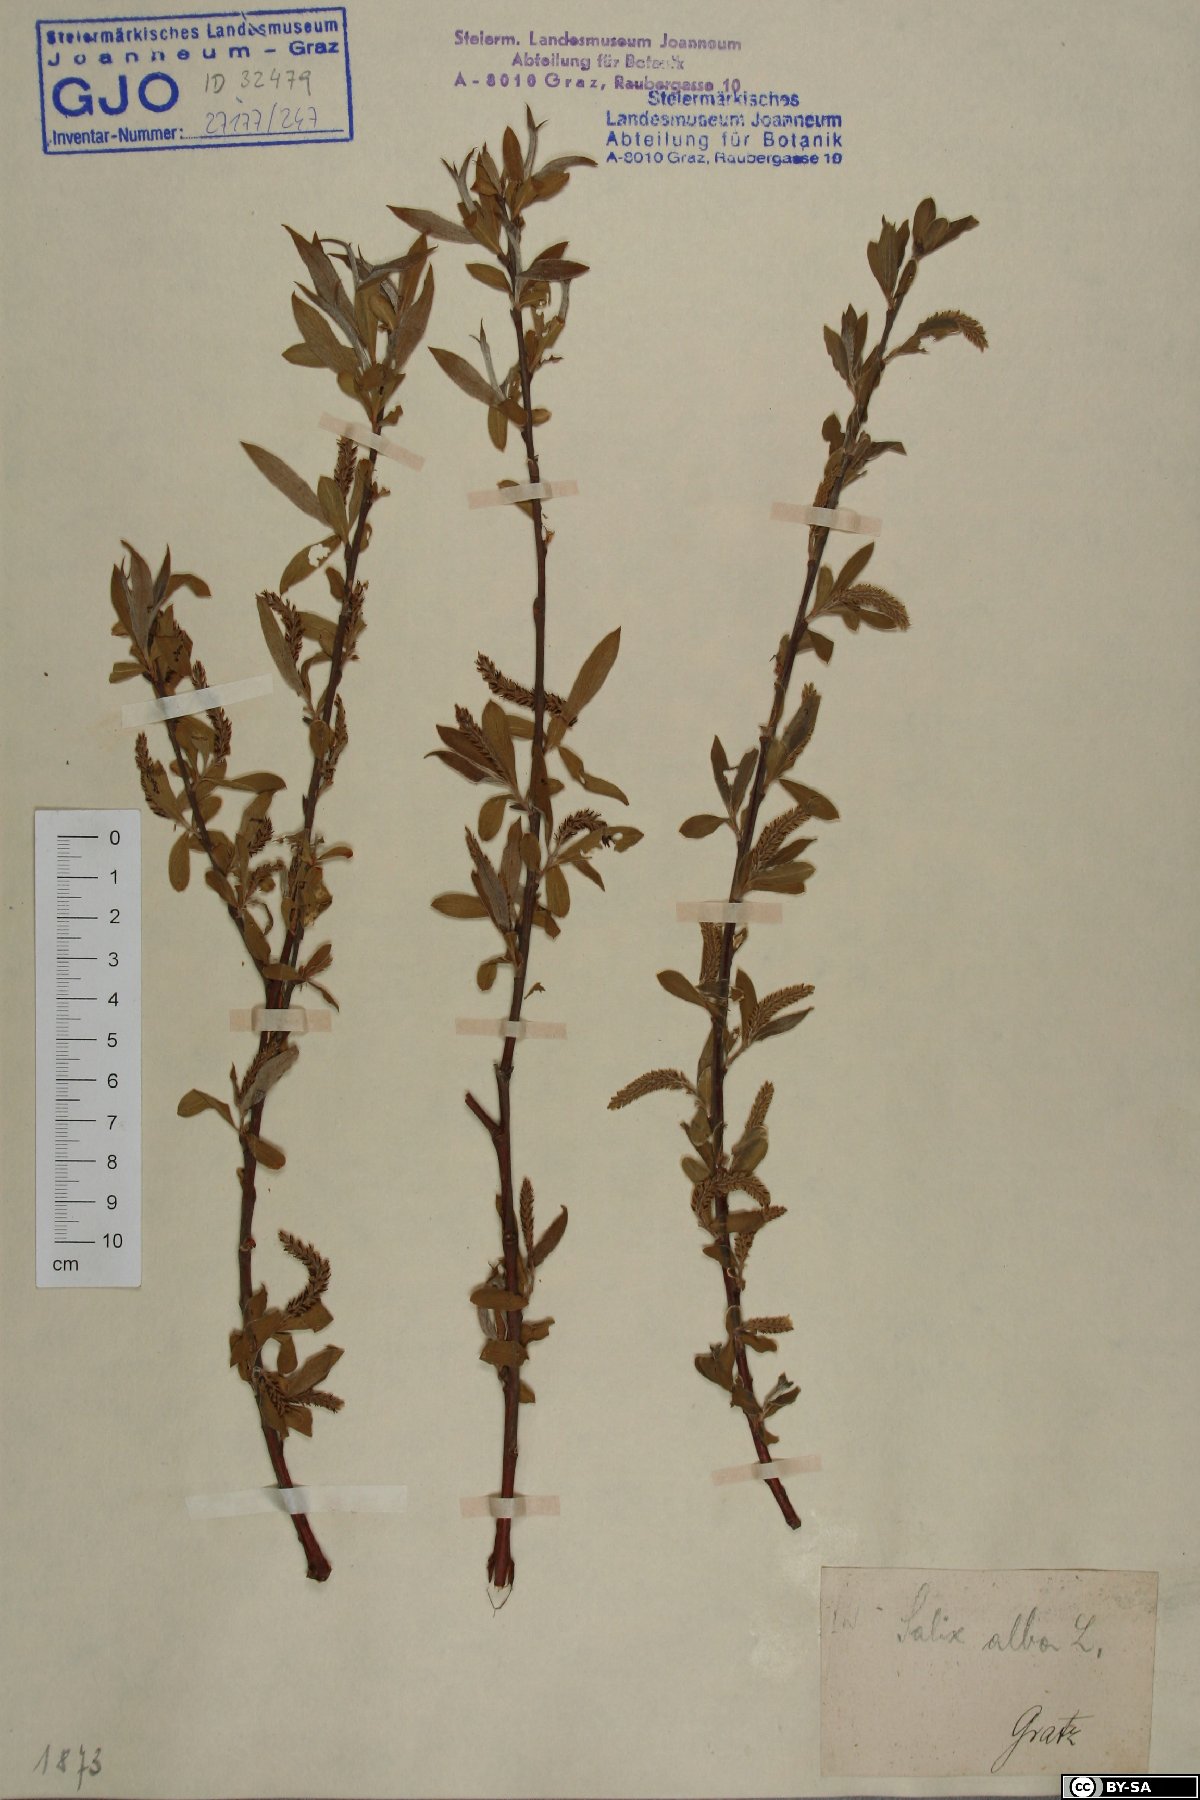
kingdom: Plantae
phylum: Tracheophyta
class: Magnoliopsida
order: Malpighiales
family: Salicaceae
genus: Salix
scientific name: Salix alba
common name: White willow
